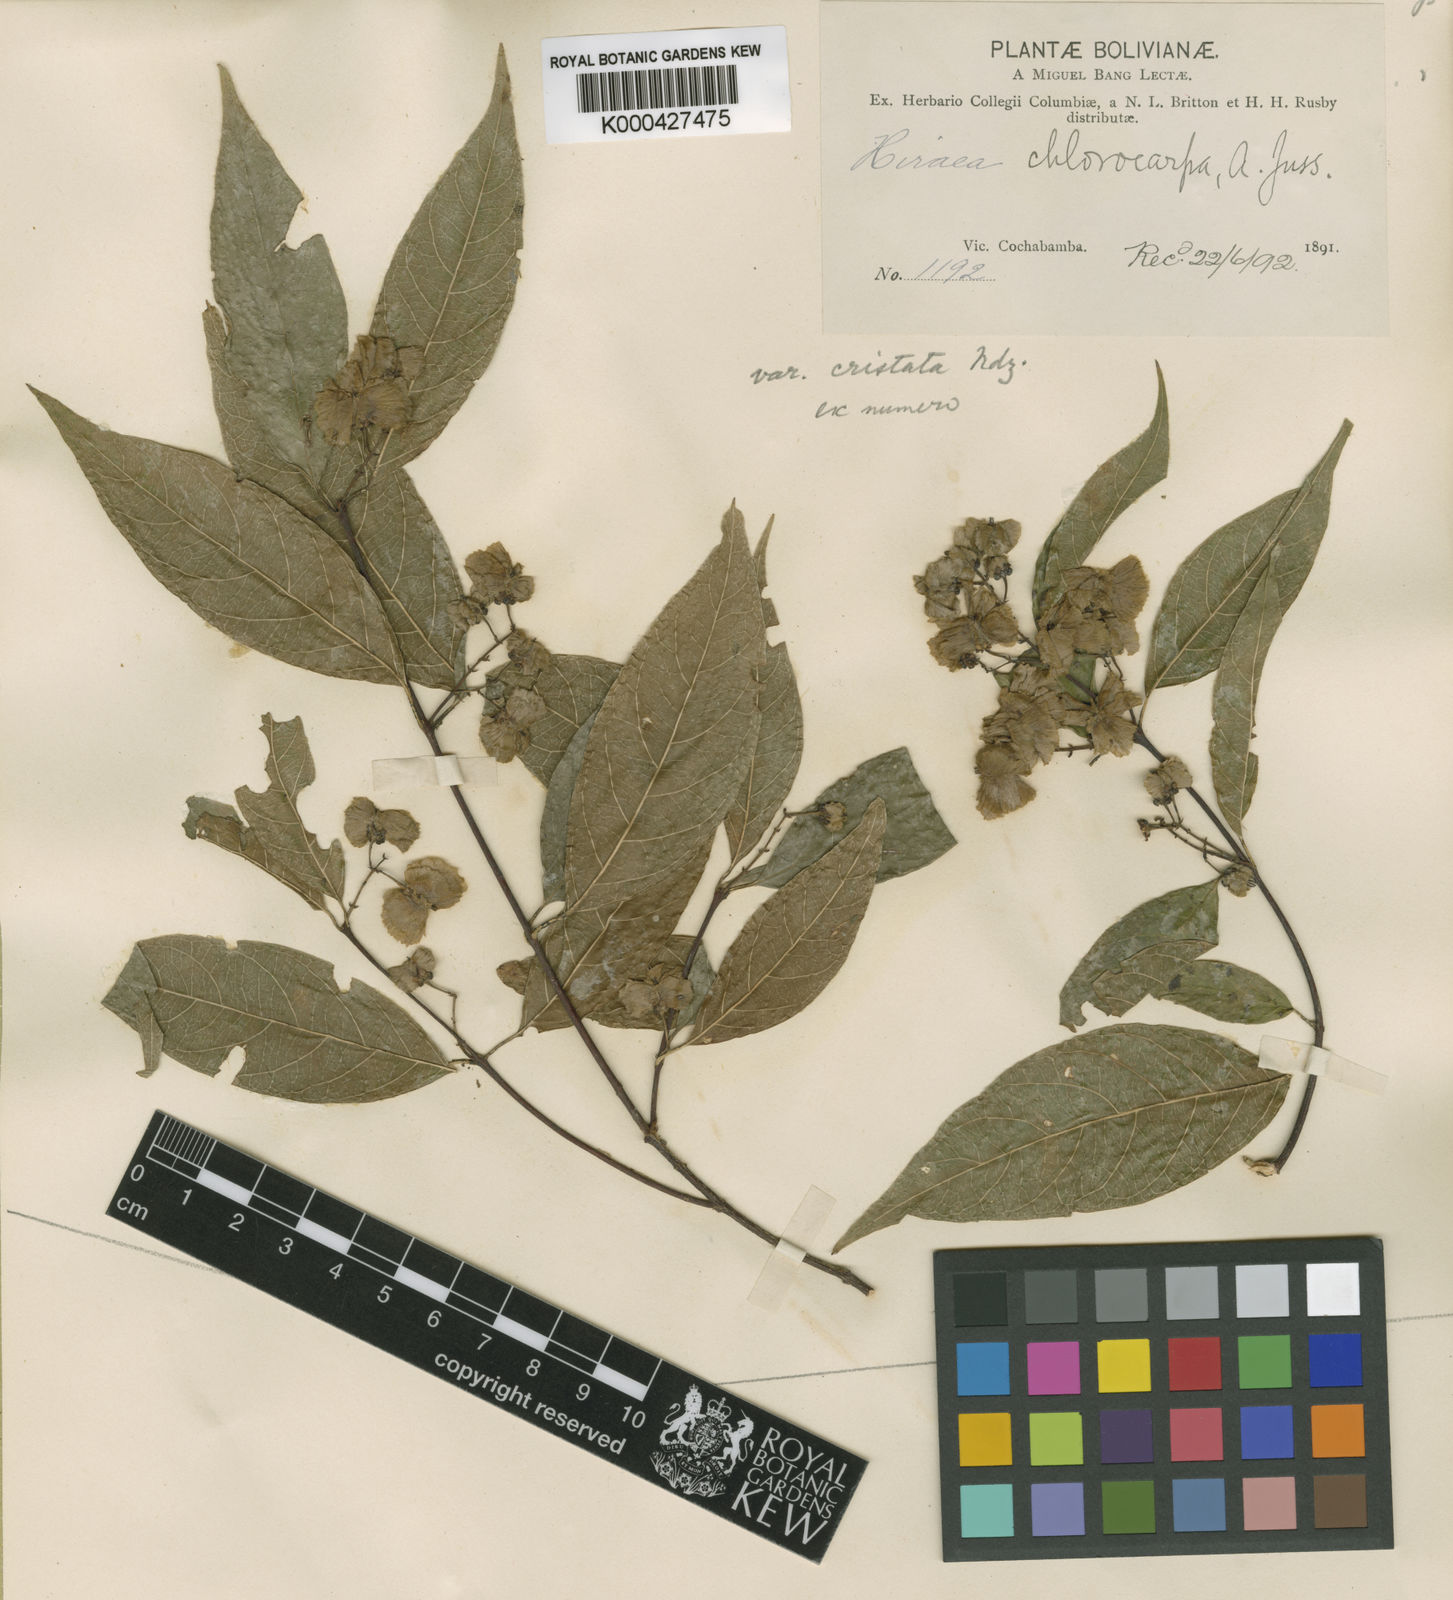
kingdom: Plantae
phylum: Tracheophyta
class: Magnoliopsida
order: Malpighiales
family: Malpighiaceae
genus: Carolus
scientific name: Carolus chlorocarpus
